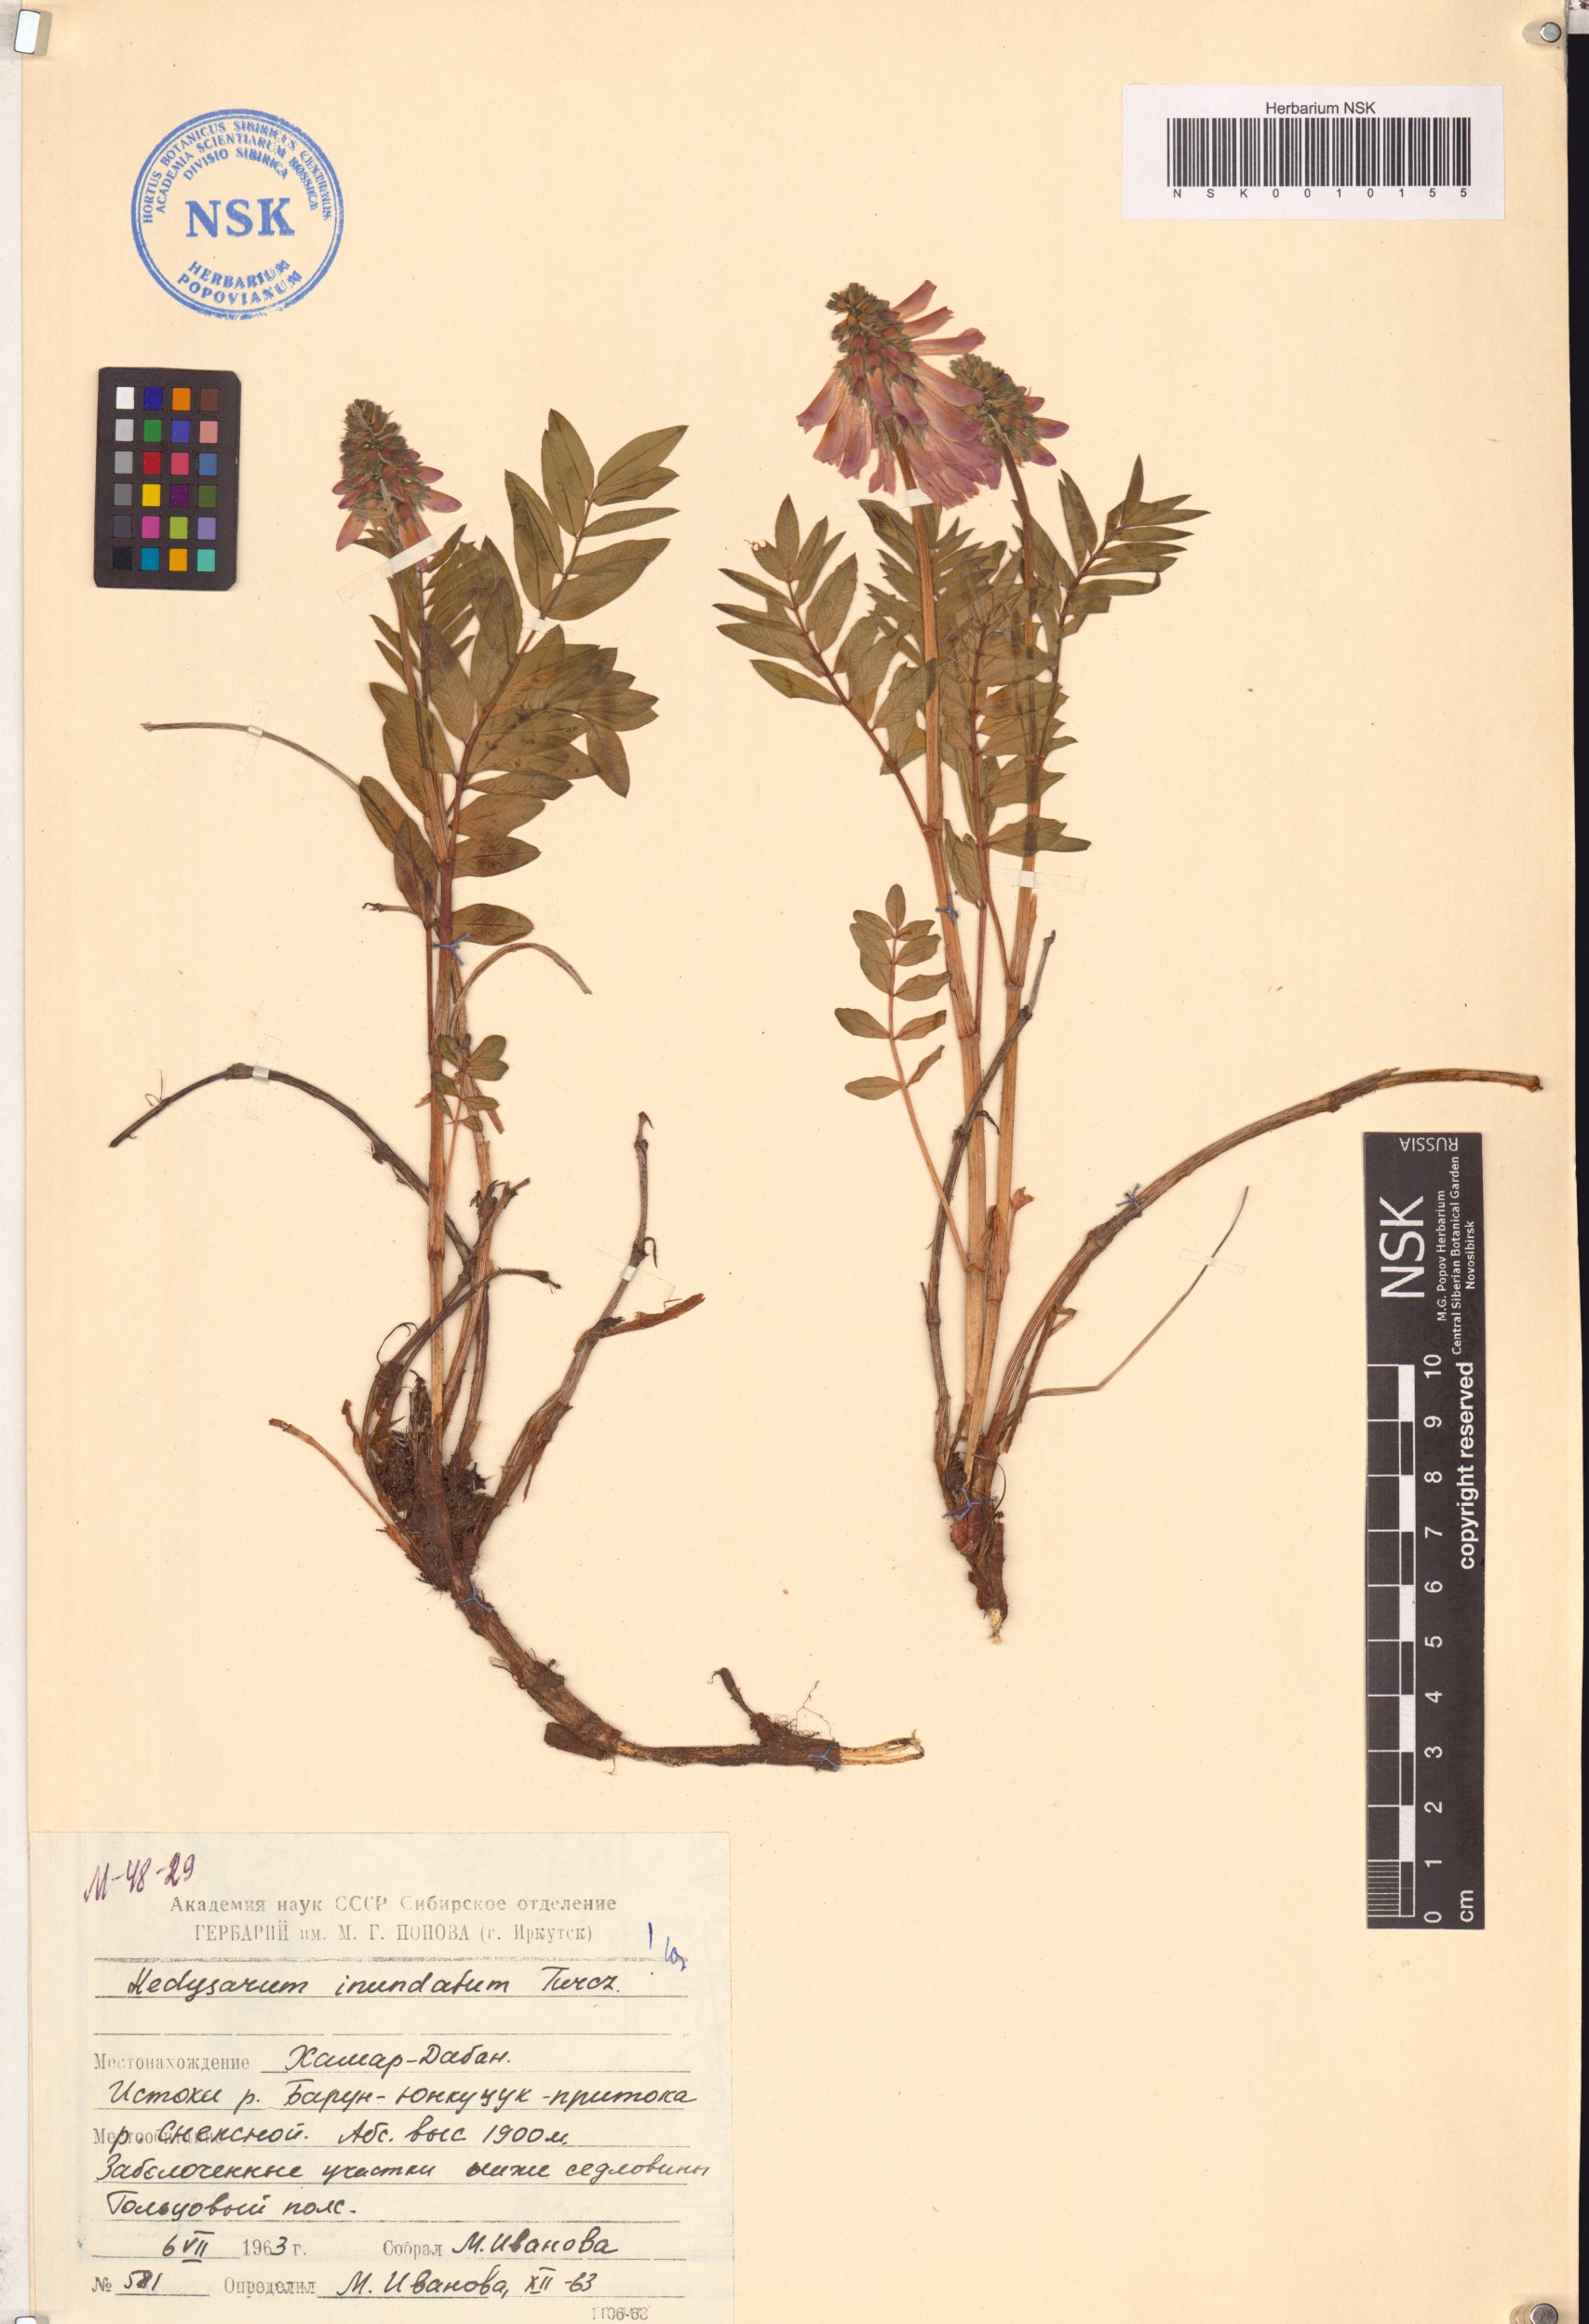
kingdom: Plantae
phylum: Tracheophyta
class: Magnoliopsida
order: Fabales
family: Fabaceae
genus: Hedysarum
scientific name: Hedysarum inundatum
